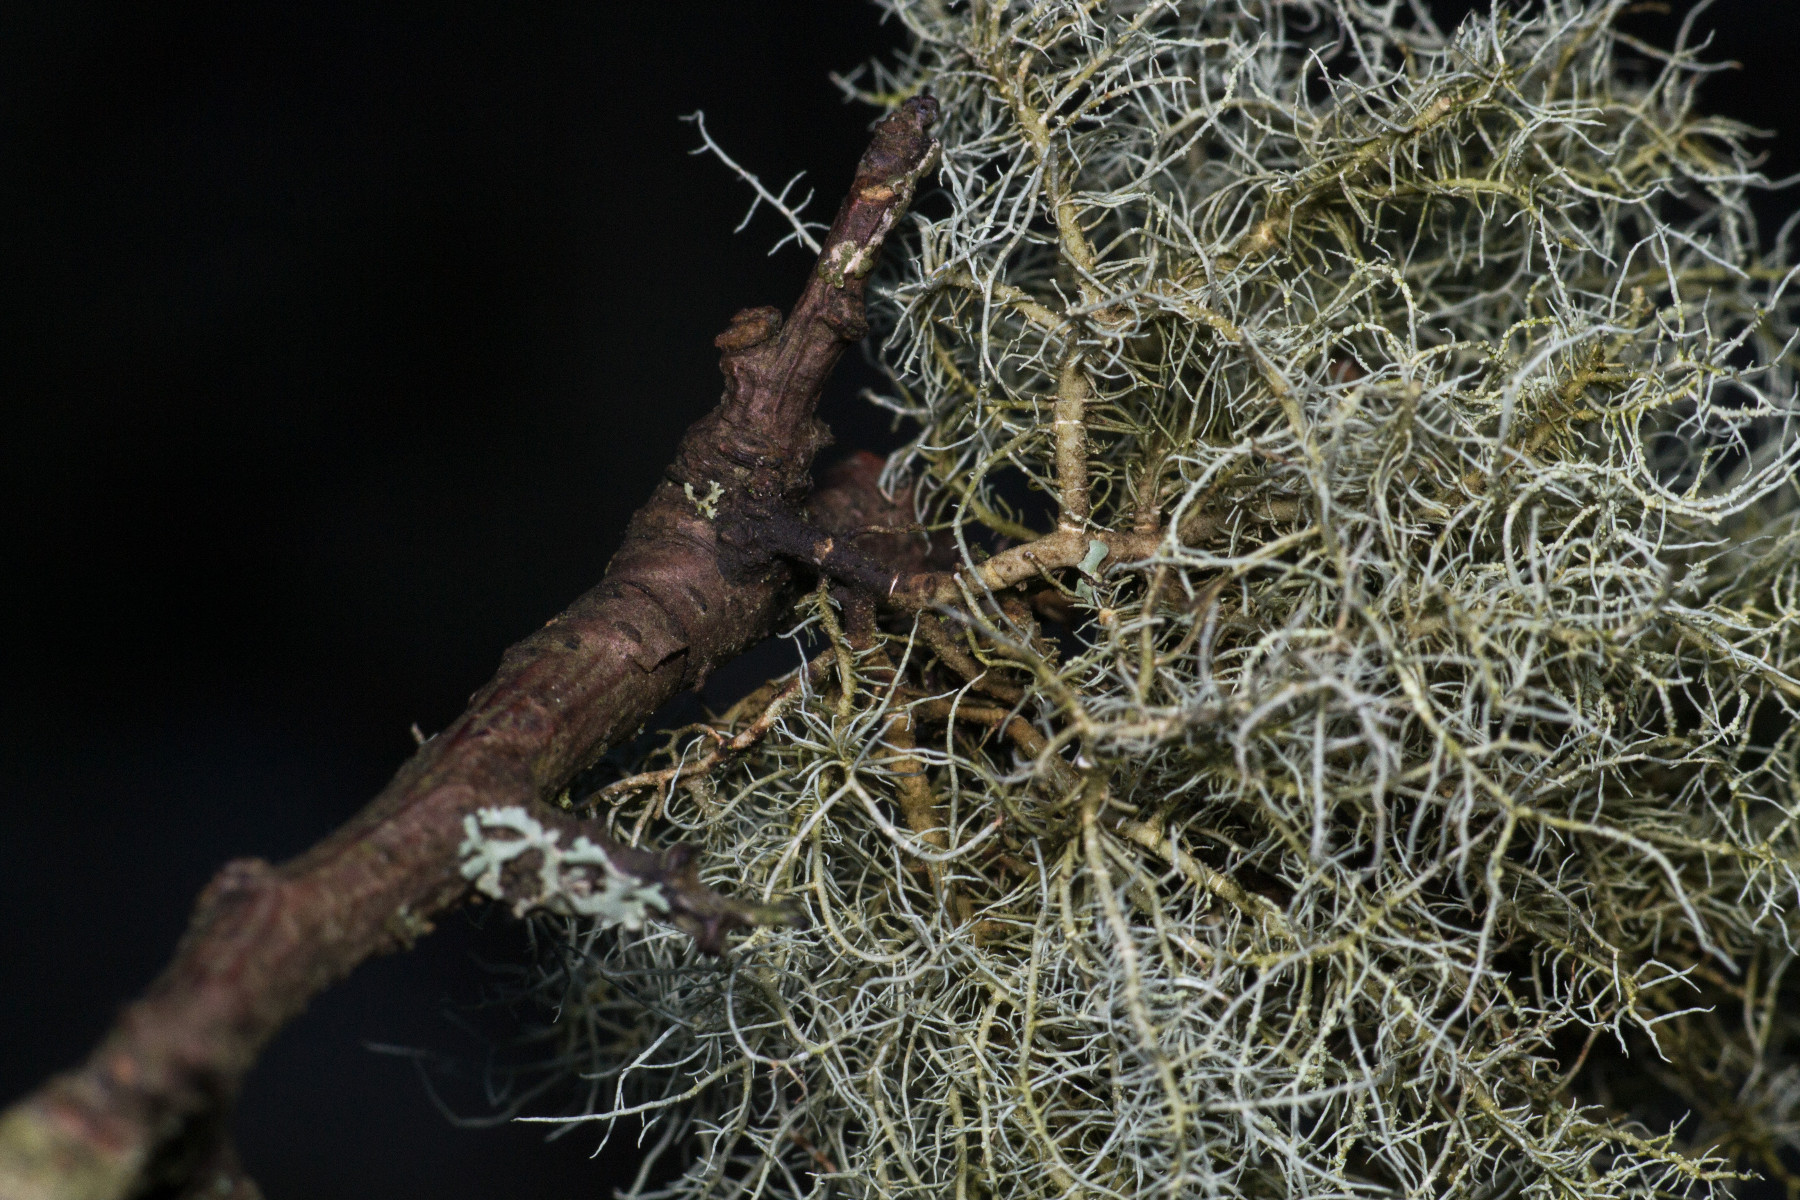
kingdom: Fungi
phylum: Ascomycota
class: Lecanoromycetes
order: Lecanorales
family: Parmeliaceae
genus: Usnea
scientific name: Usnea glabrescens
